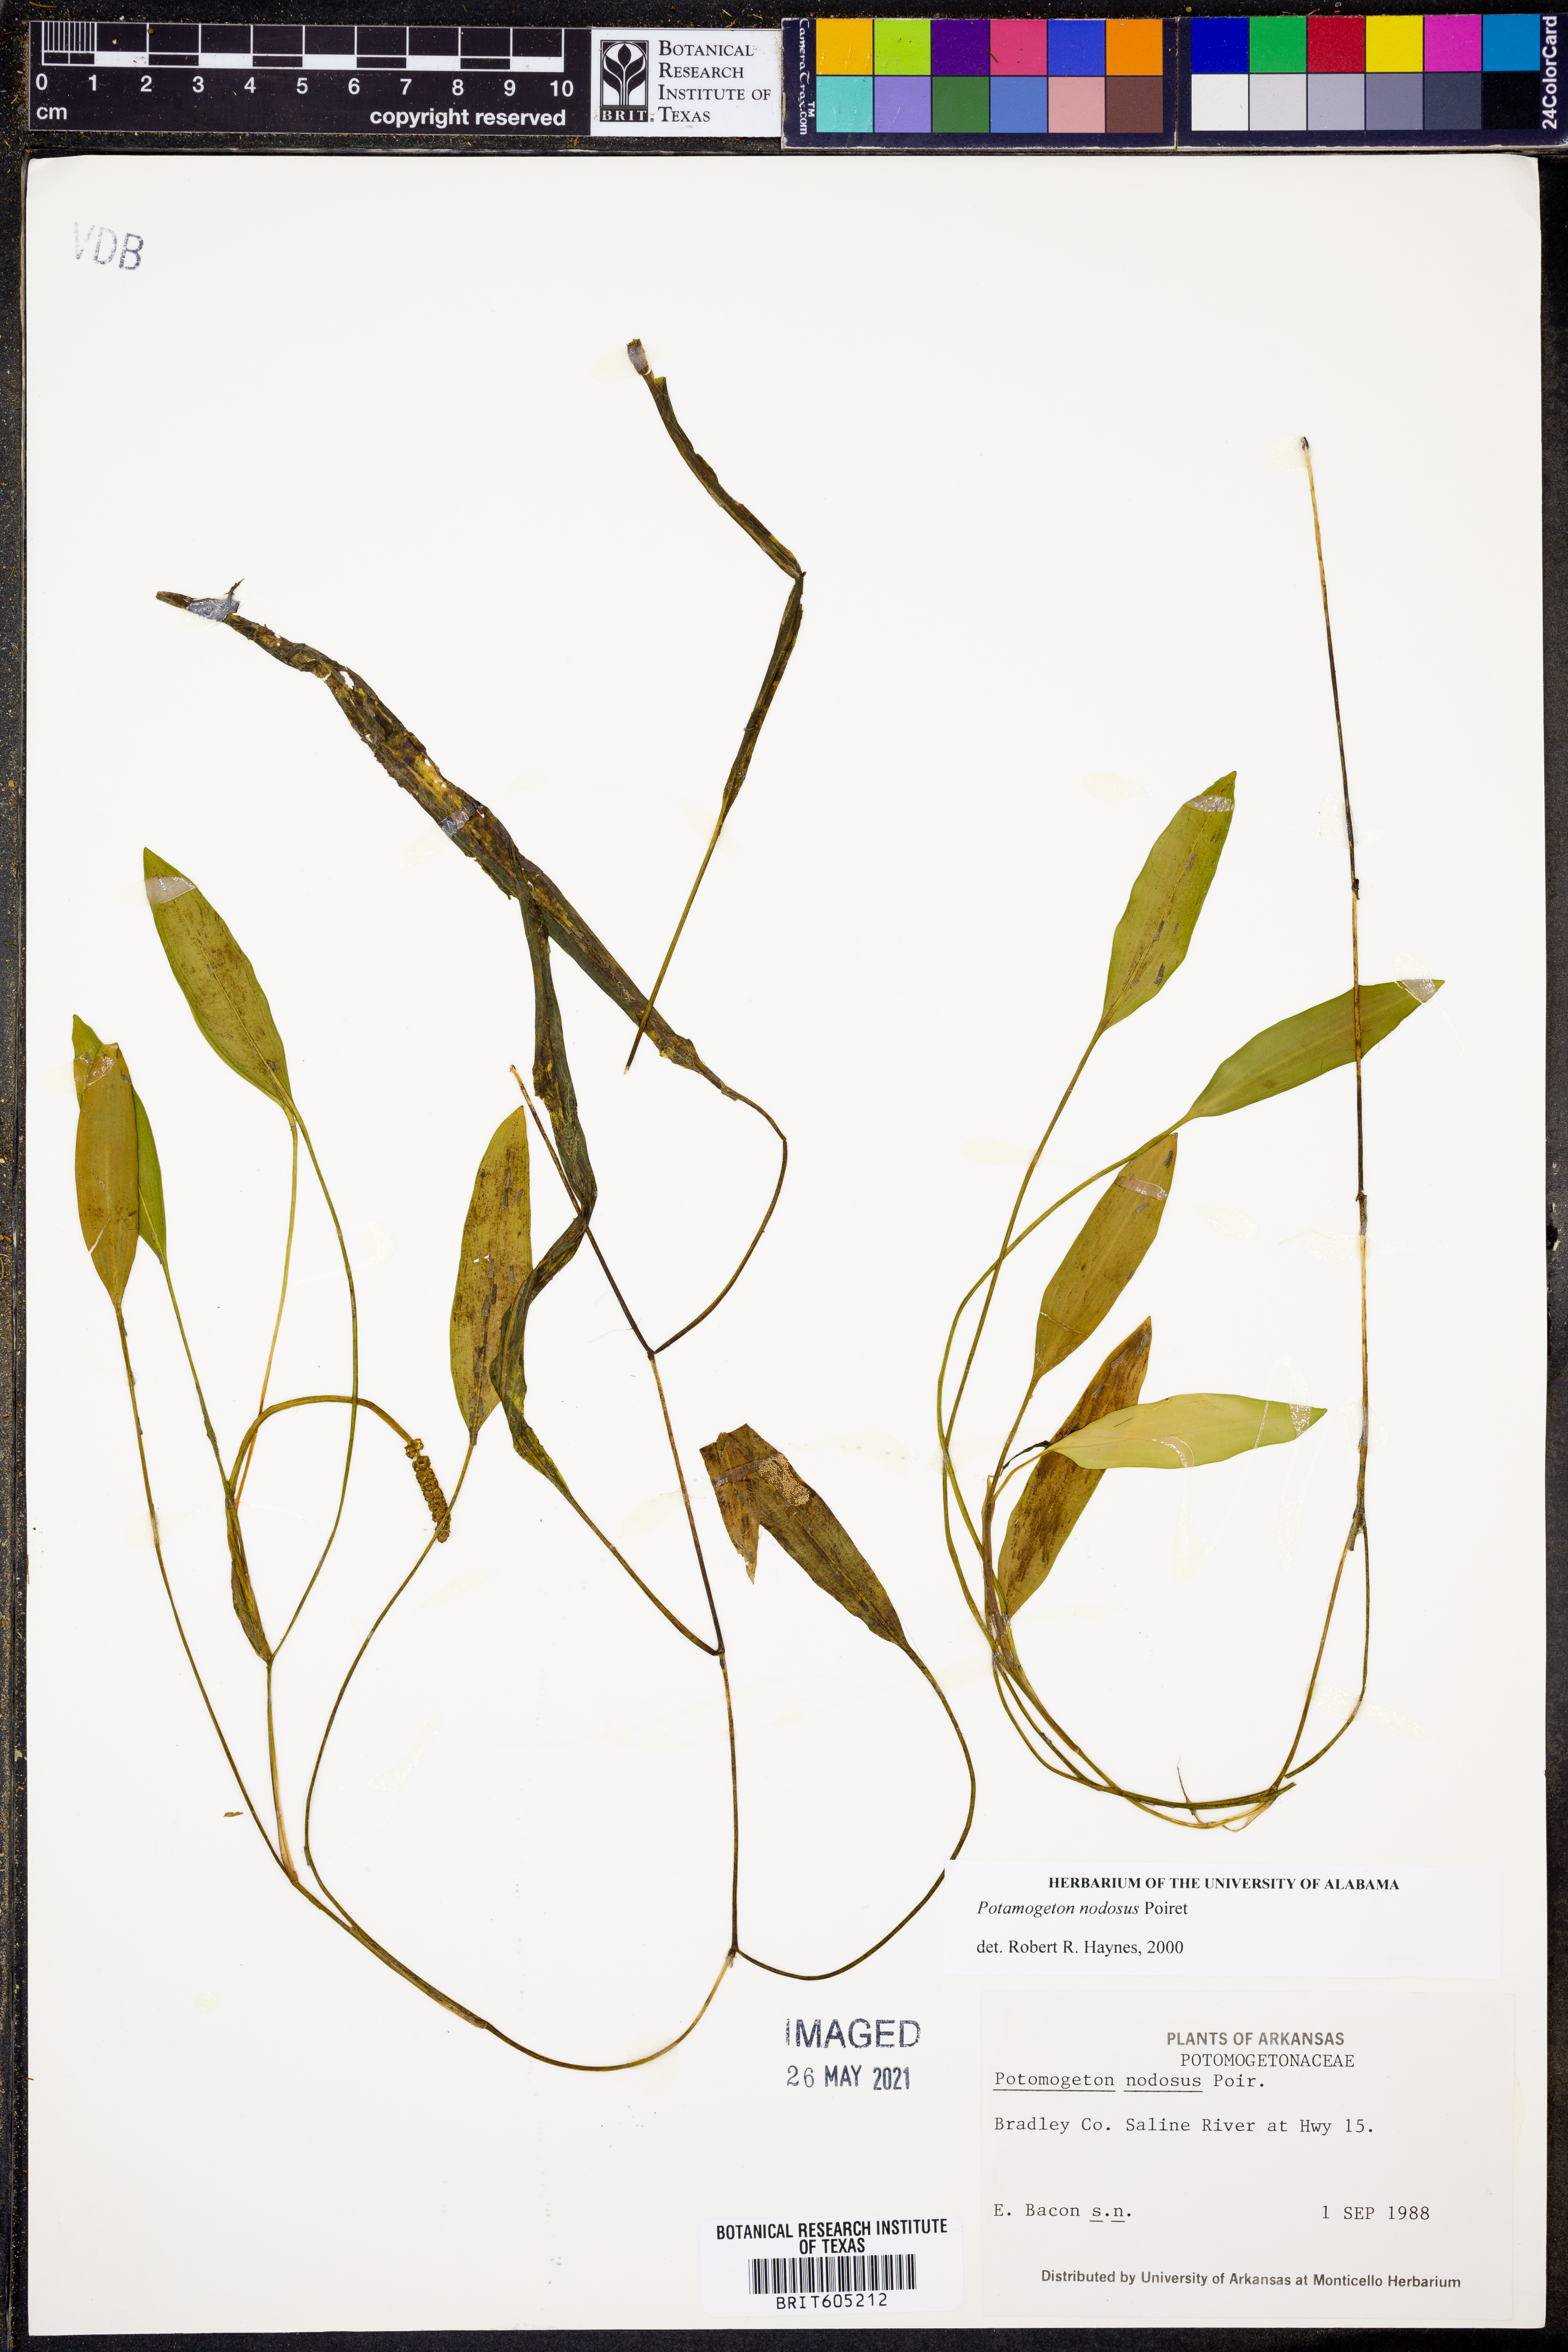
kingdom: Plantae
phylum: Tracheophyta
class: Liliopsida
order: Alismatales
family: Potamogetonaceae
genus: Potamogeton
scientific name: Potamogeton nodosus
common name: Loddon pondweed
